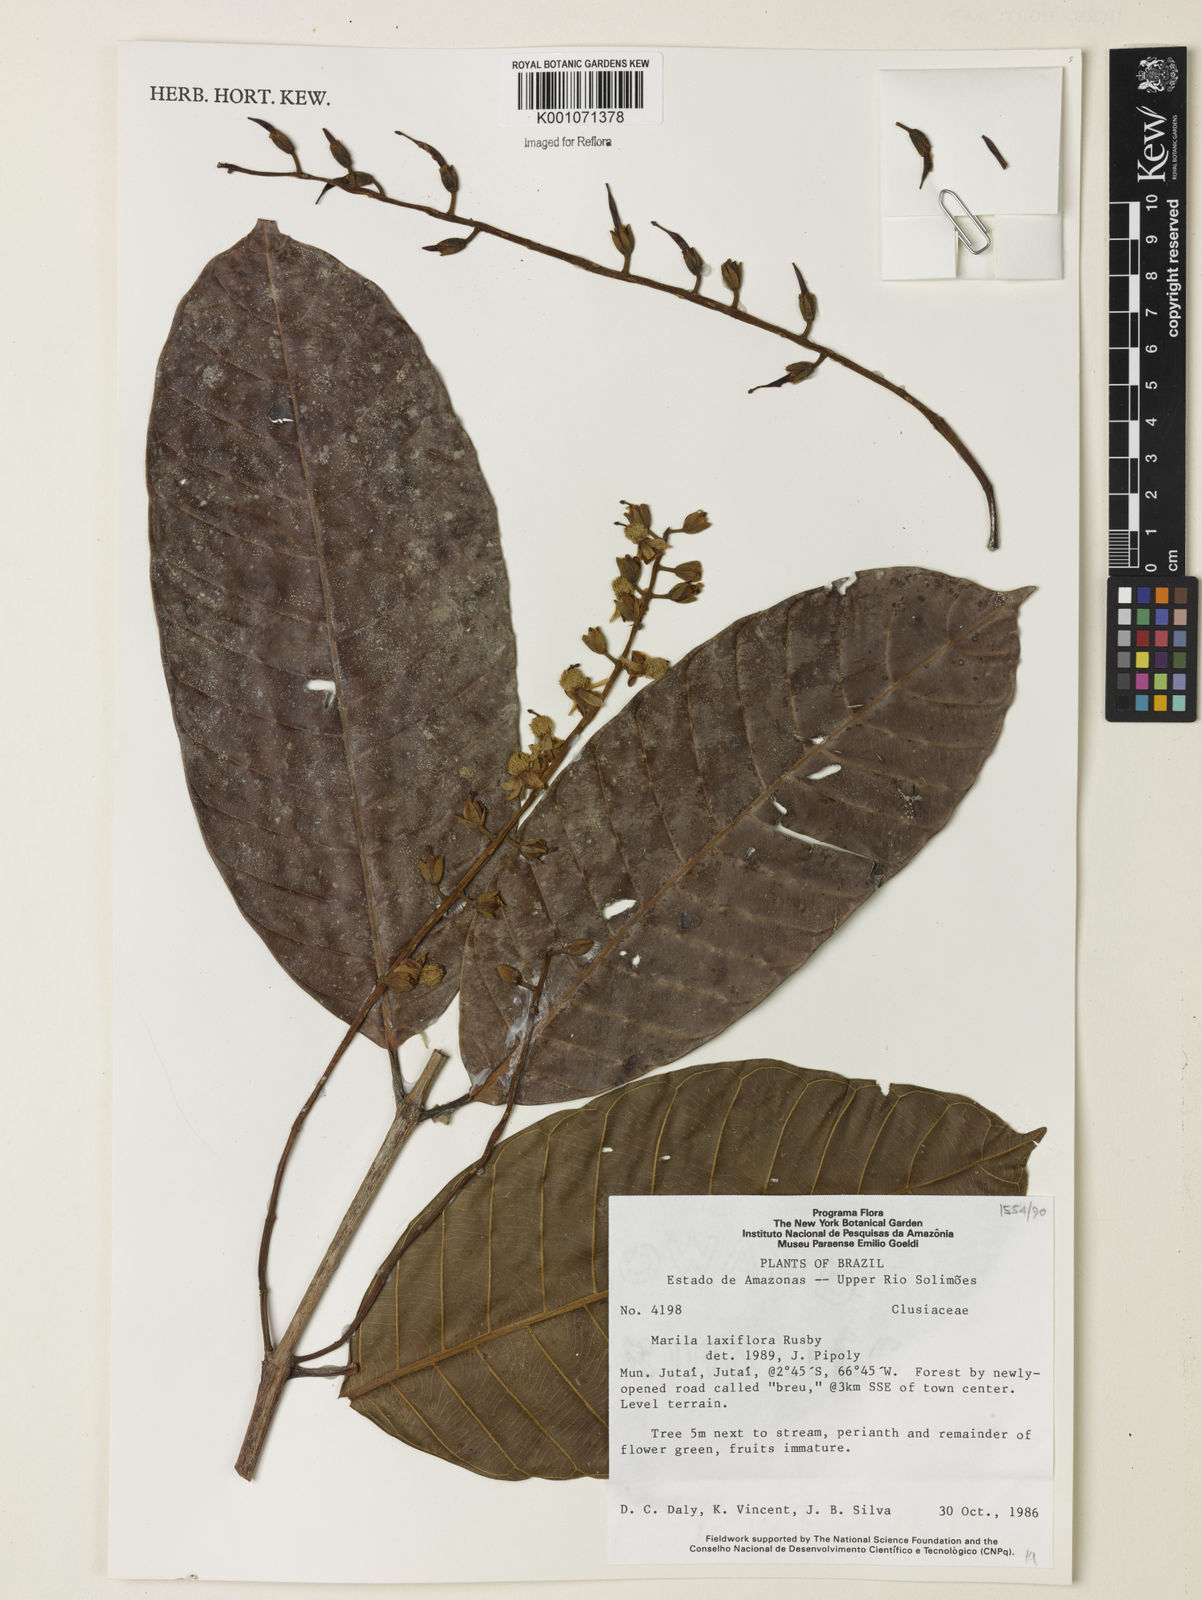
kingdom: Plantae
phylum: Tracheophyta
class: Magnoliopsida
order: Malpighiales
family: Calophyllaceae
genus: Marila
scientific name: Marila laxiflora
